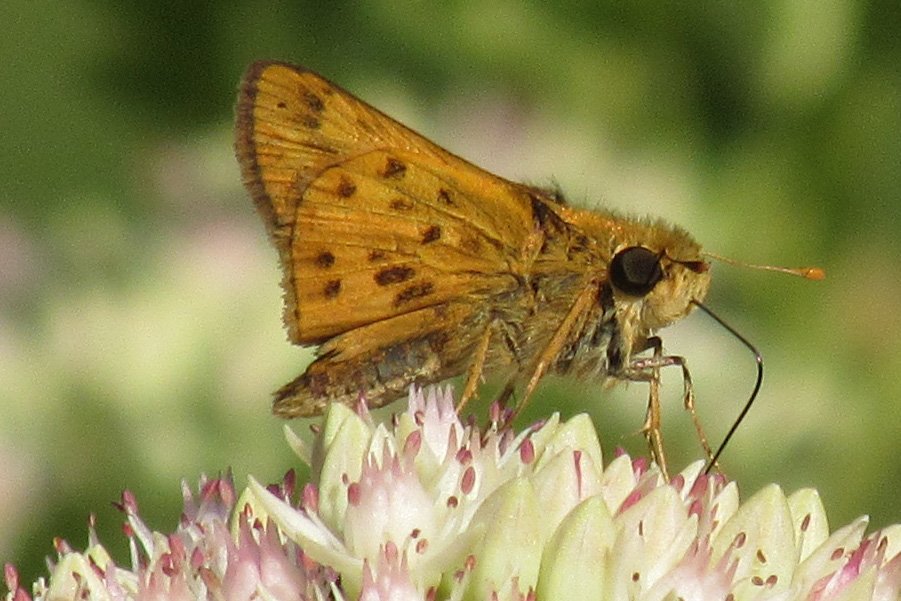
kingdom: Animalia
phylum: Arthropoda
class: Insecta
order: Lepidoptera
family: Hesperiidae
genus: Hylephila
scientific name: Hylephila phyleus
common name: Fiery Skipper
